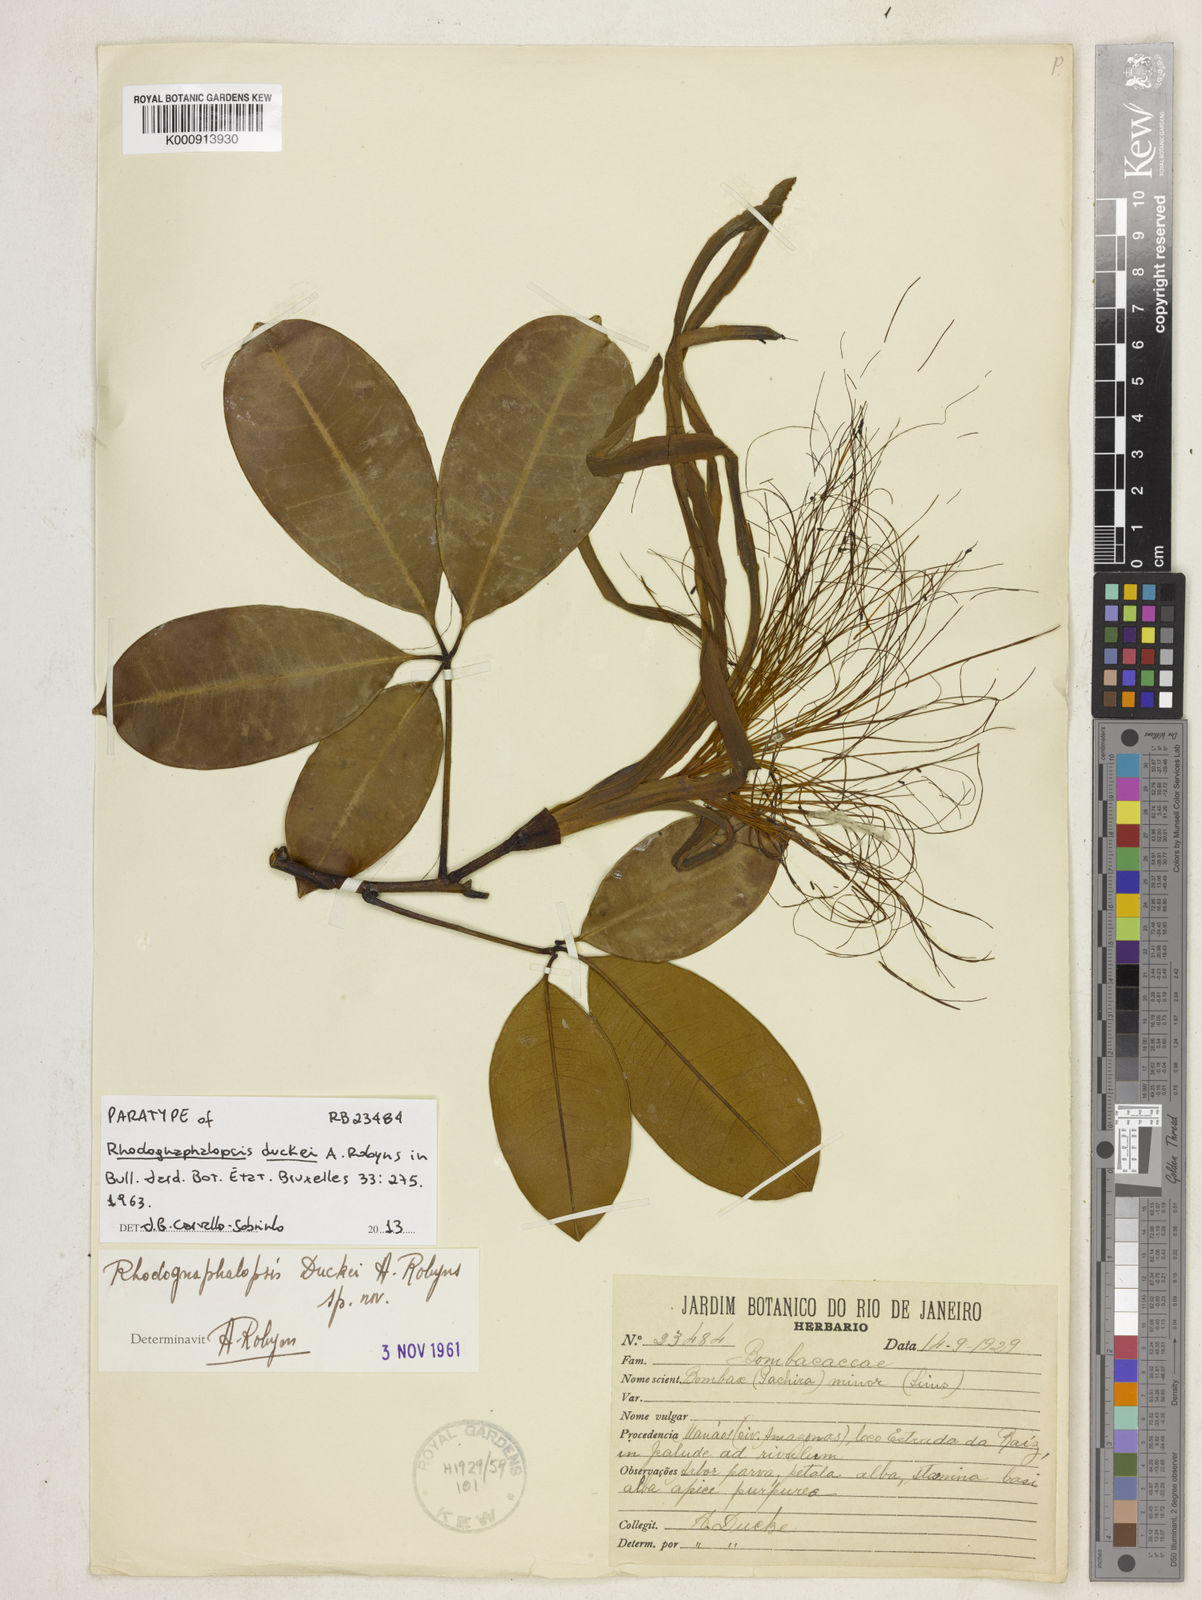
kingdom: Plantae
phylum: Tracheophyta
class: Magnoliopsida
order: Malvales
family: Malvaceae
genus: Pachira
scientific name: Pachira duckei
